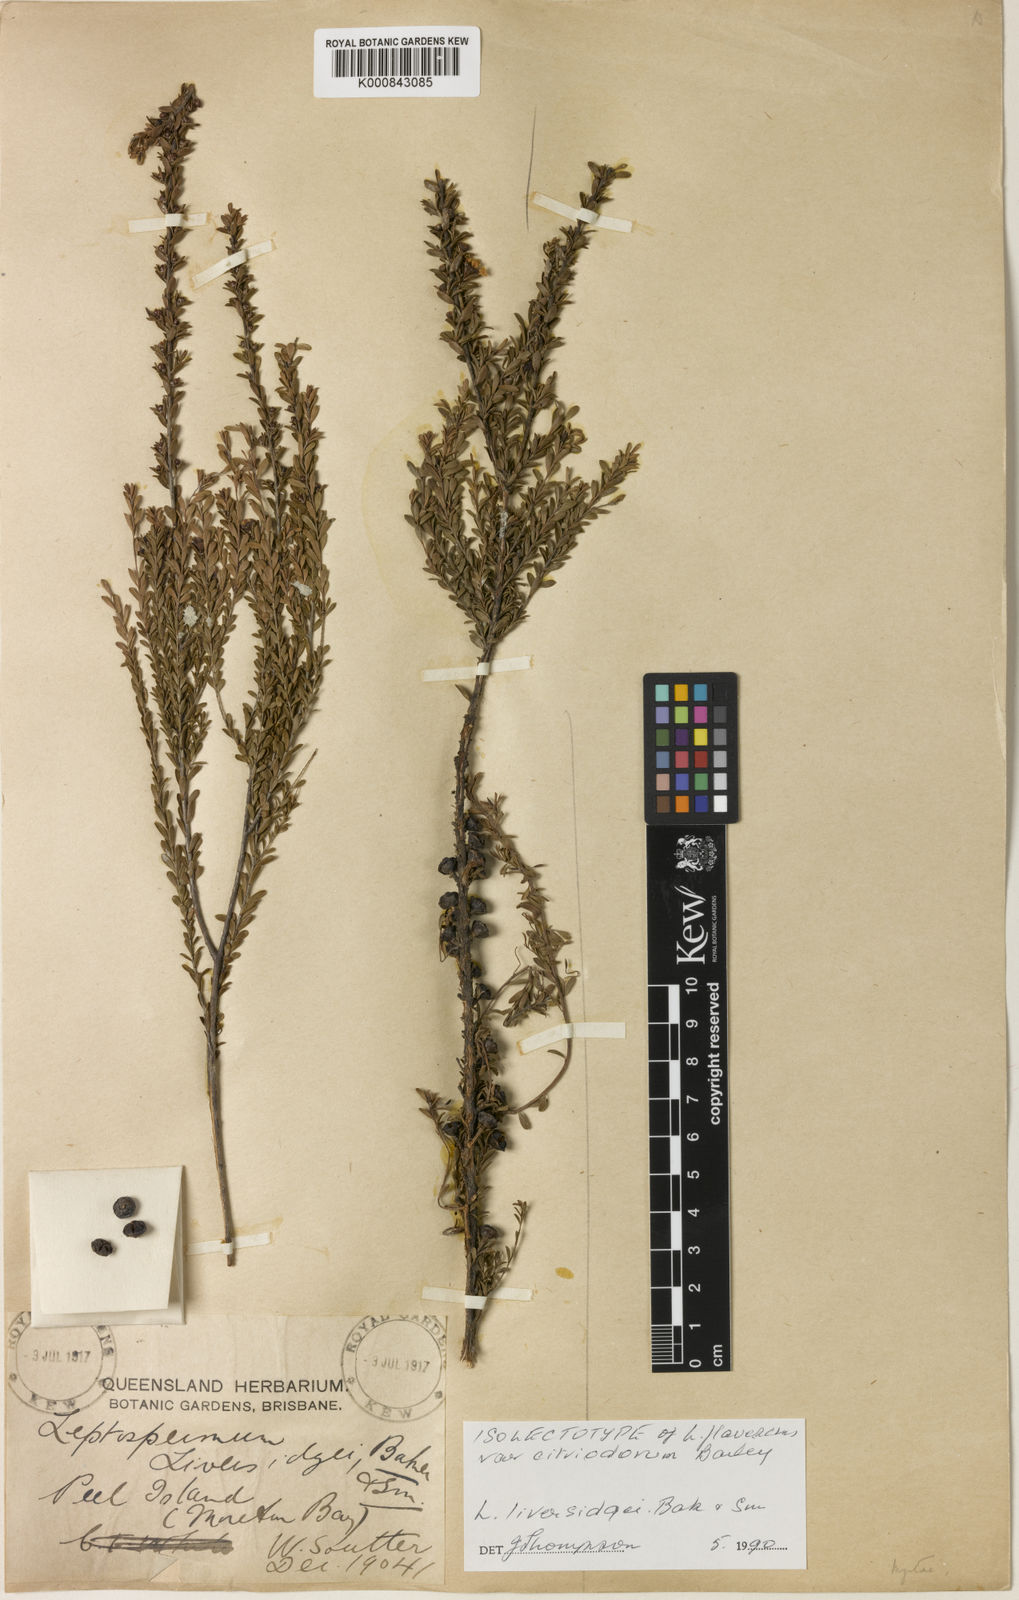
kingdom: Plantae
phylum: Tracheophyta
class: Magnoliopsida
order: Myrtales
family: Myrtaceae
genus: Leptospermum
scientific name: Leptospermum liversidgei
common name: Citron-scent teatree
